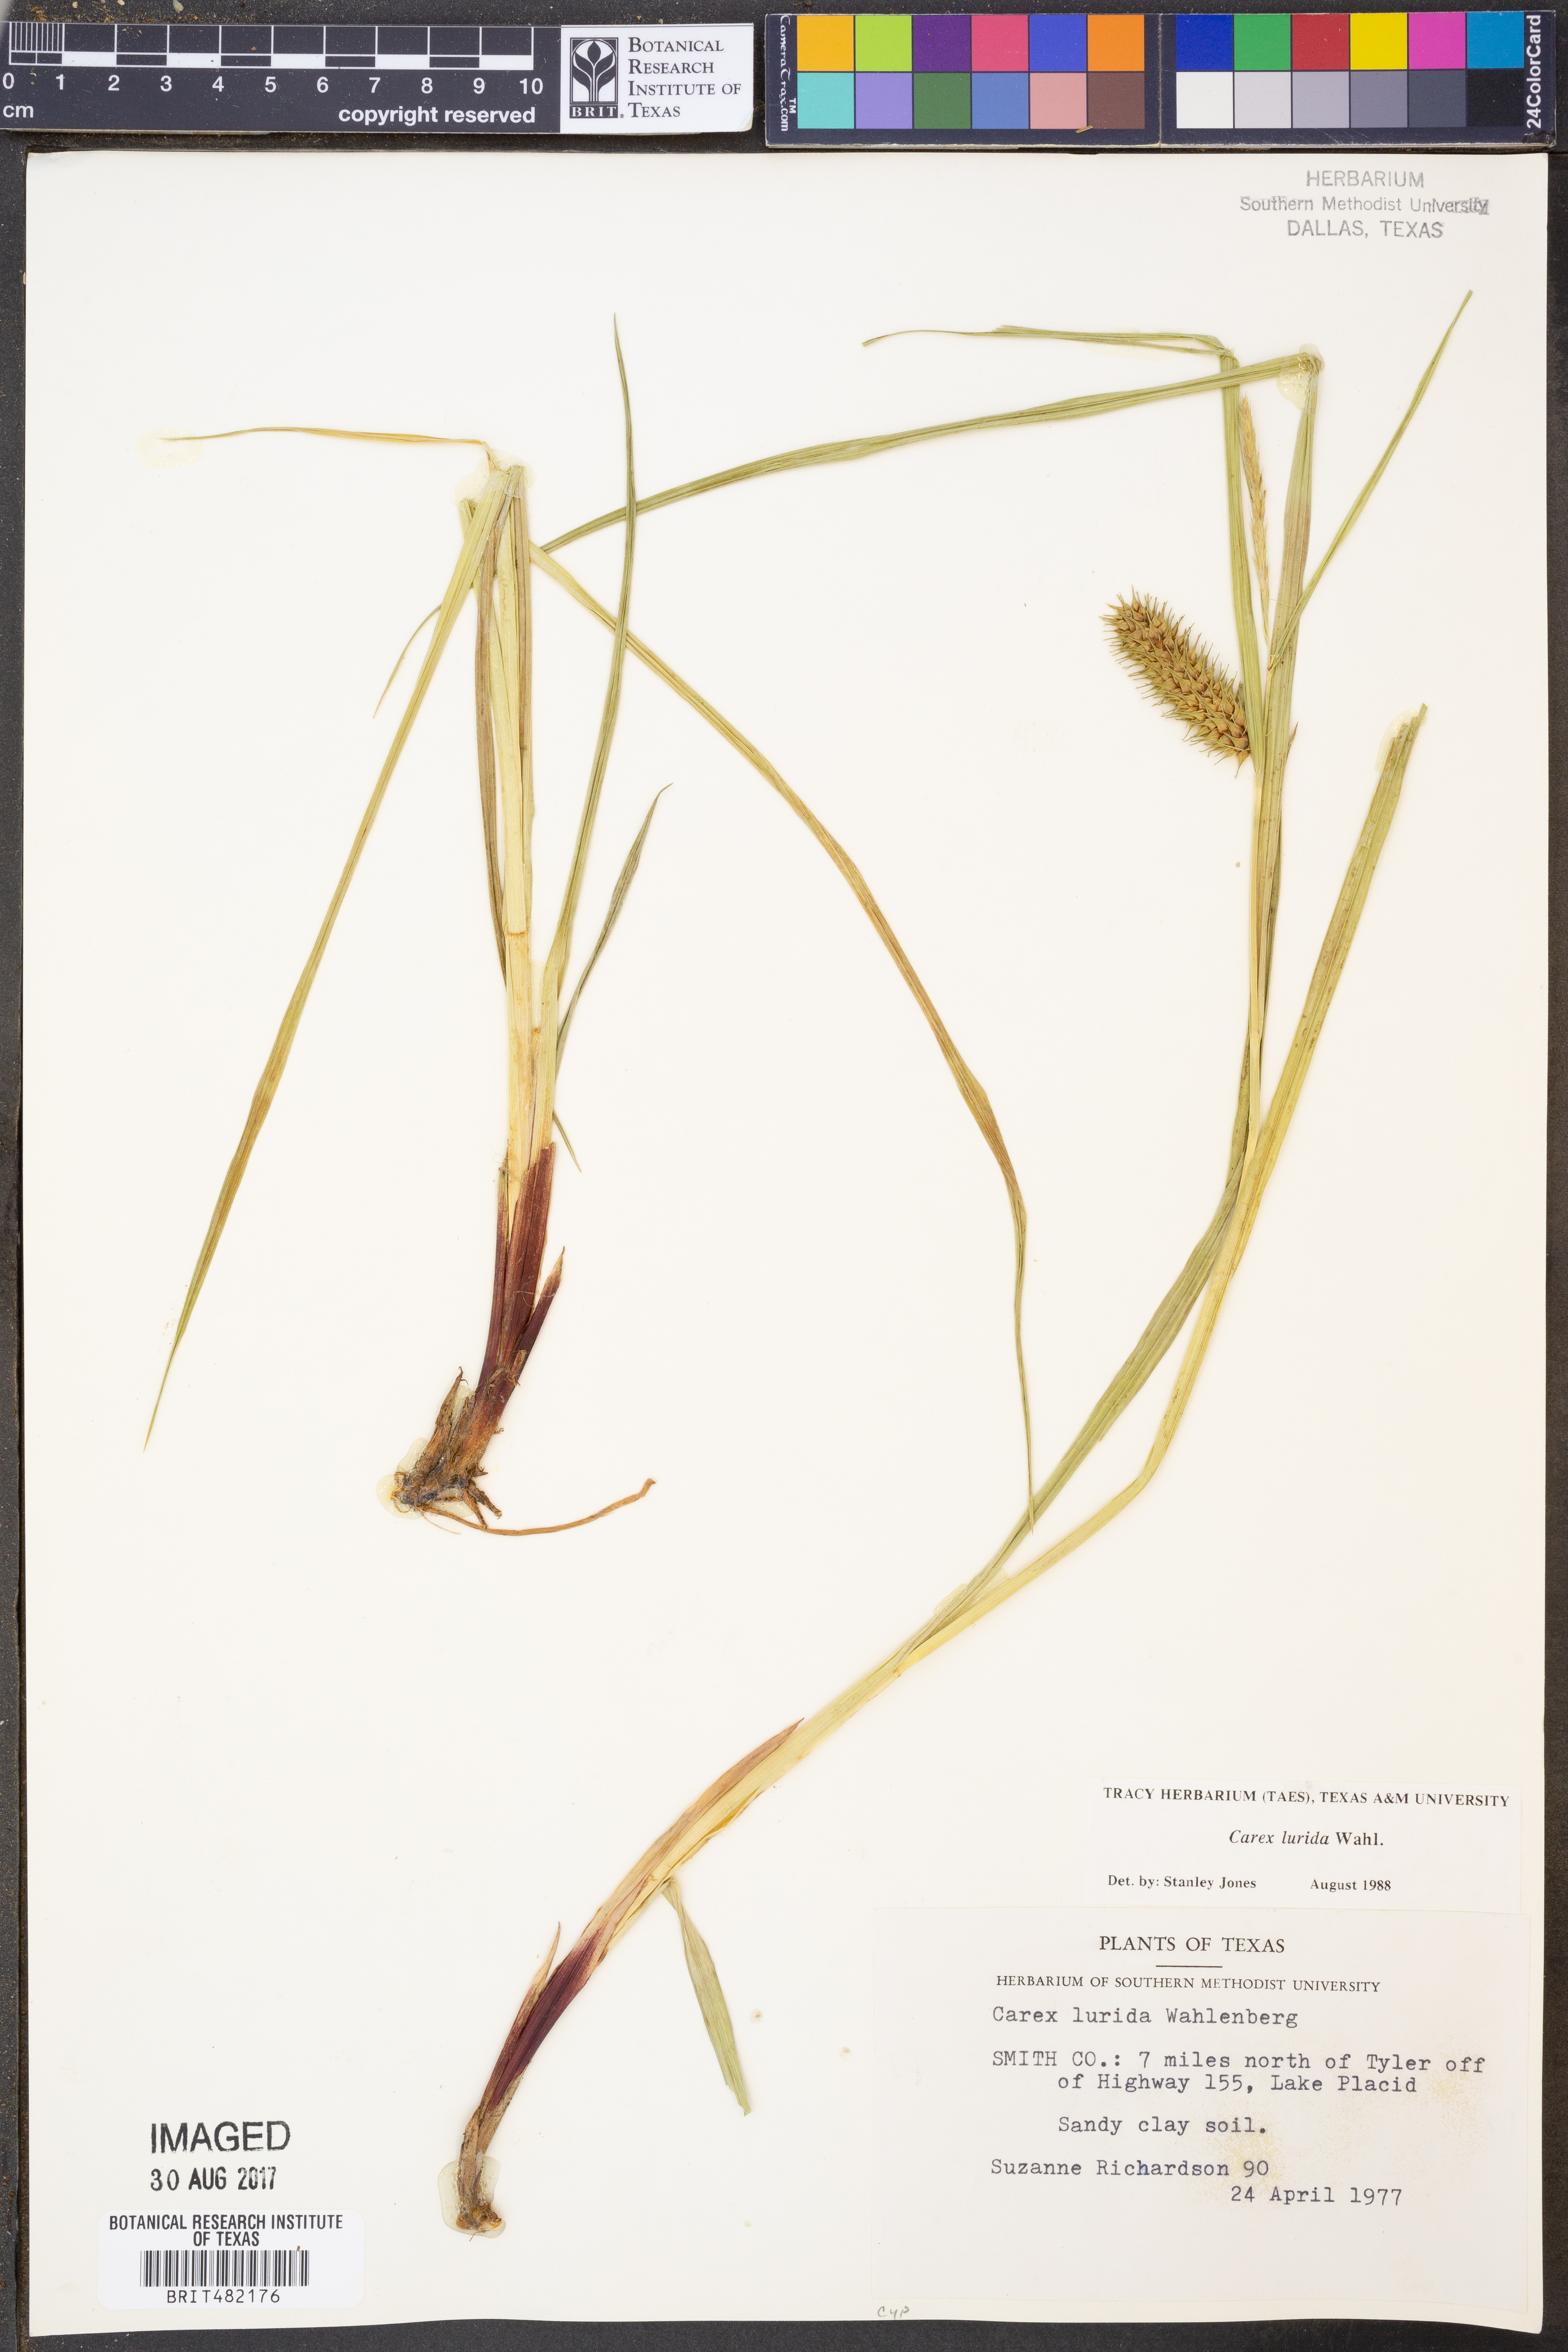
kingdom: Plantae
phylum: Tracheophyta
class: Liliopsida
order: Poales
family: Cyperaceae
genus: Carex
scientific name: Carex lurida
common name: Sallow sedge
